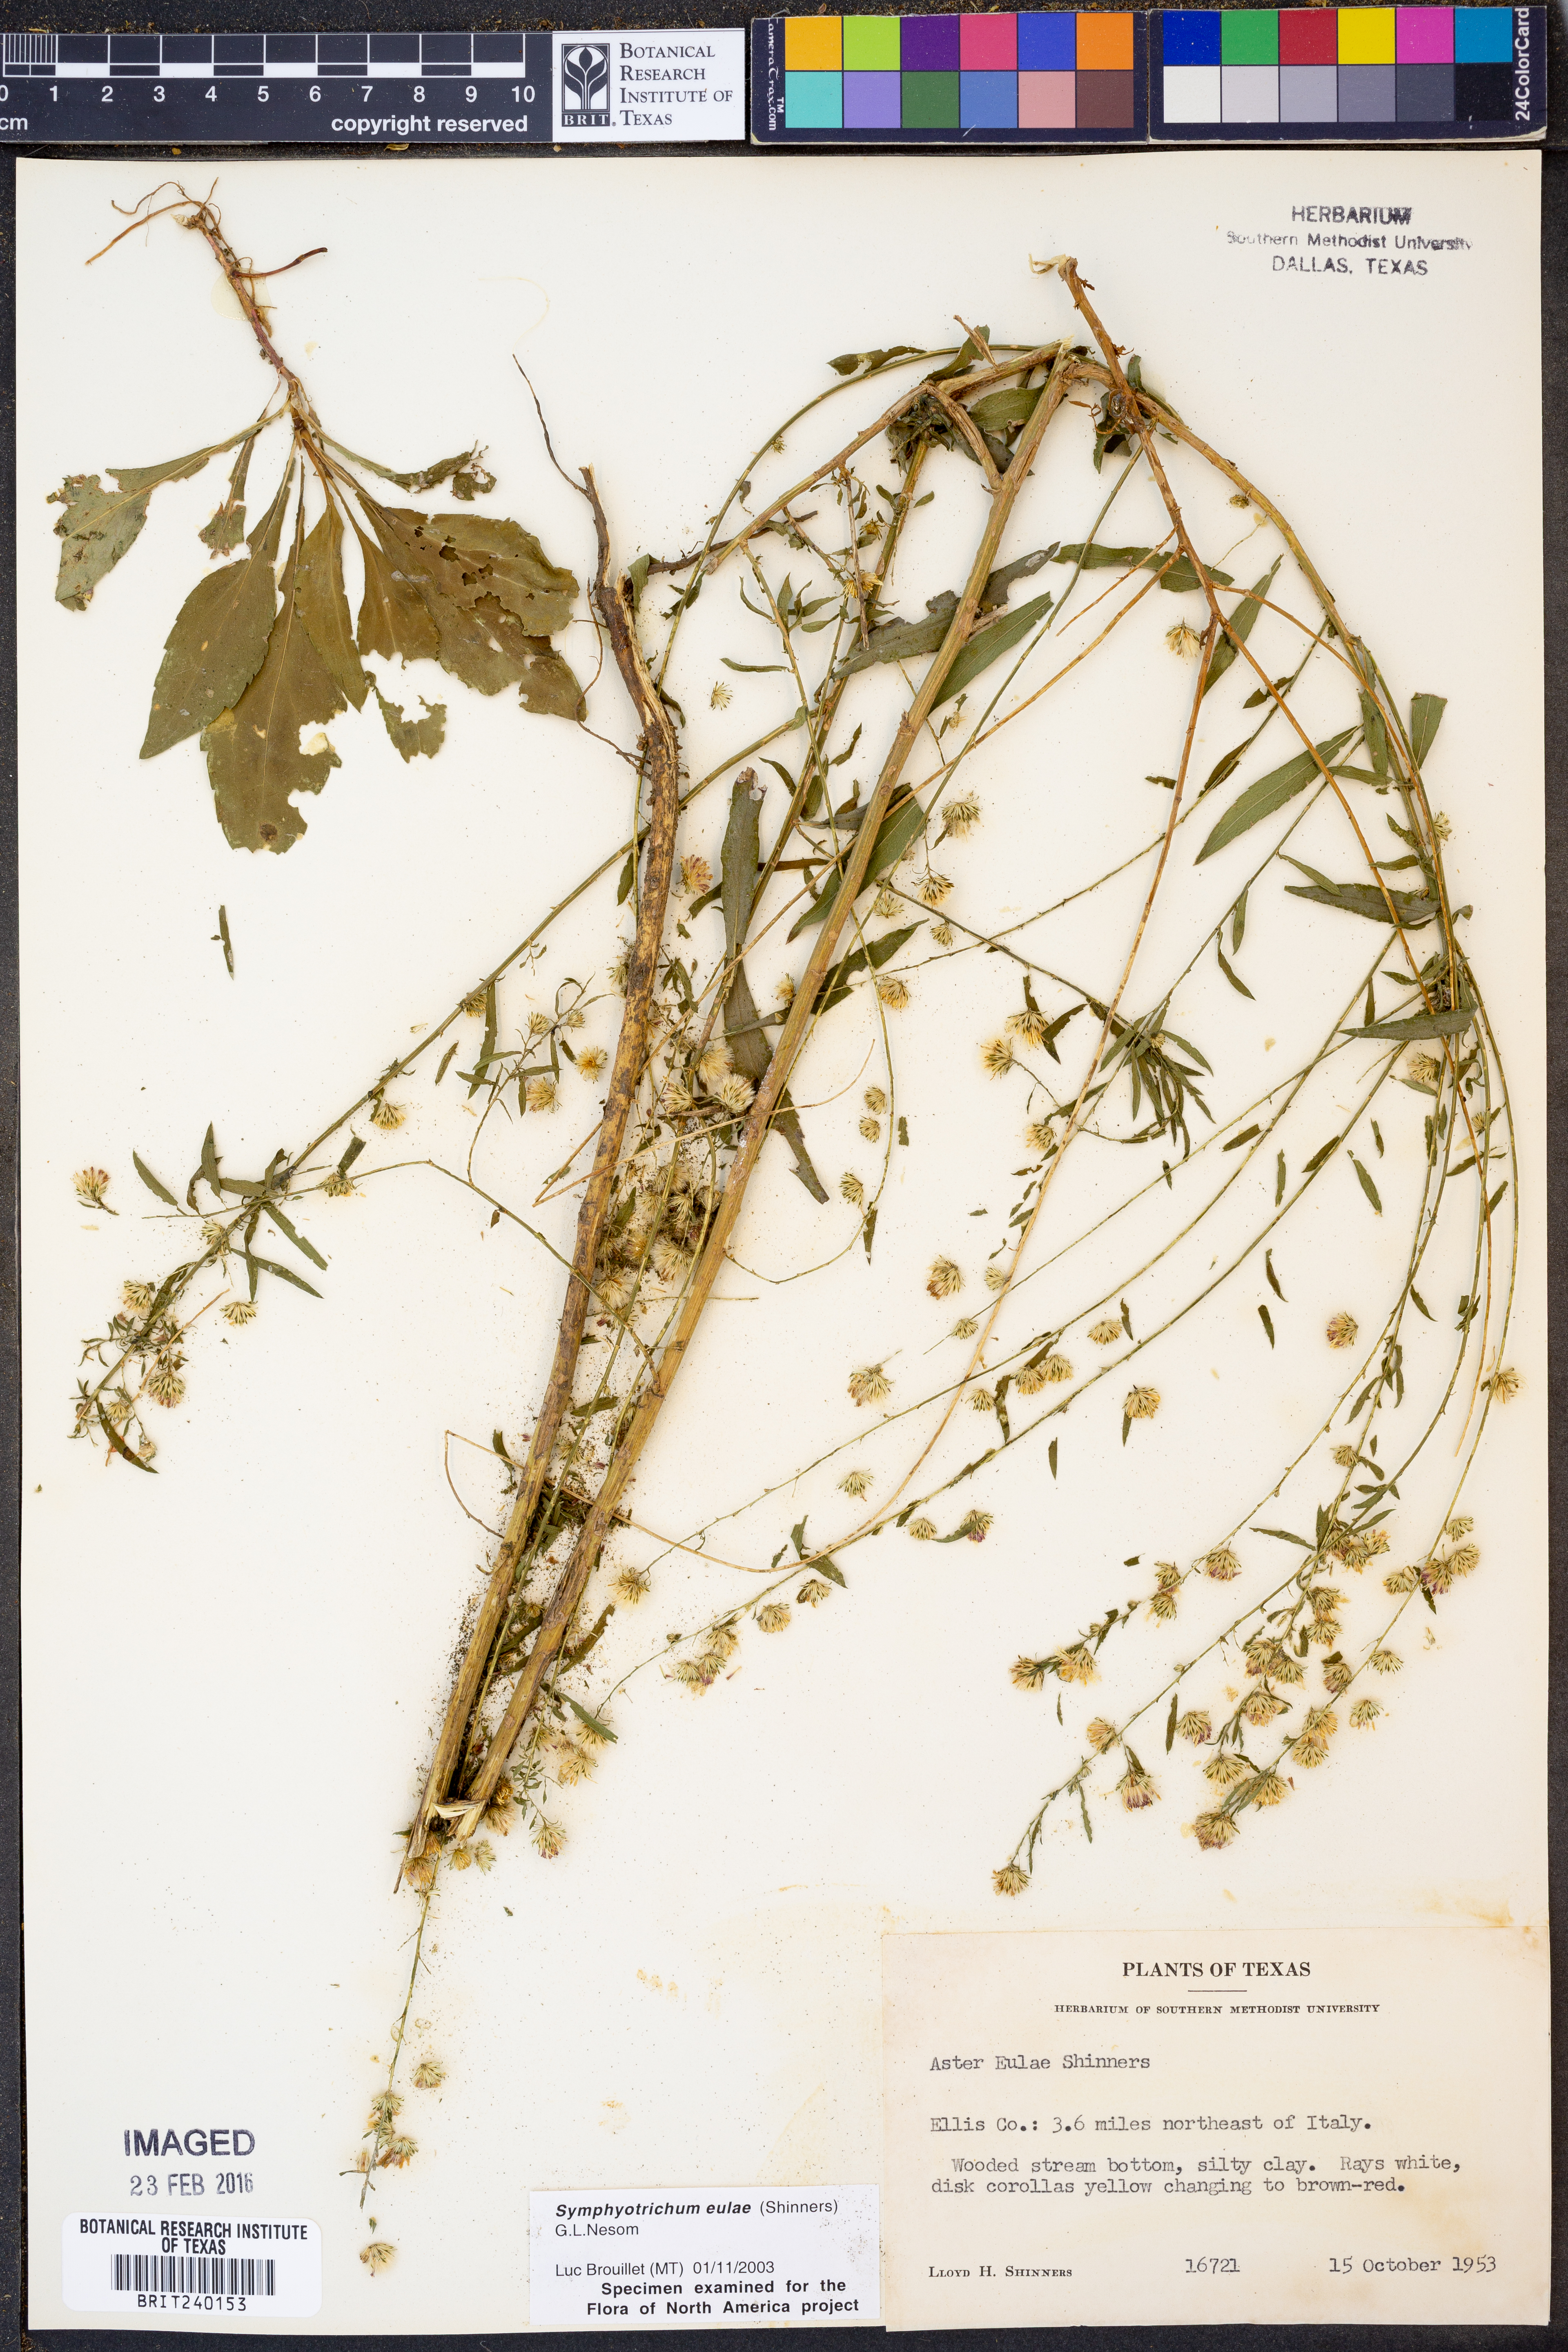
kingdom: Plantae
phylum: Tracheophyta
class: Magnoliopsida
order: Asterales
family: Asteraceae
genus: Symphyotrichum
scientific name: Symphyotrichum eulae
